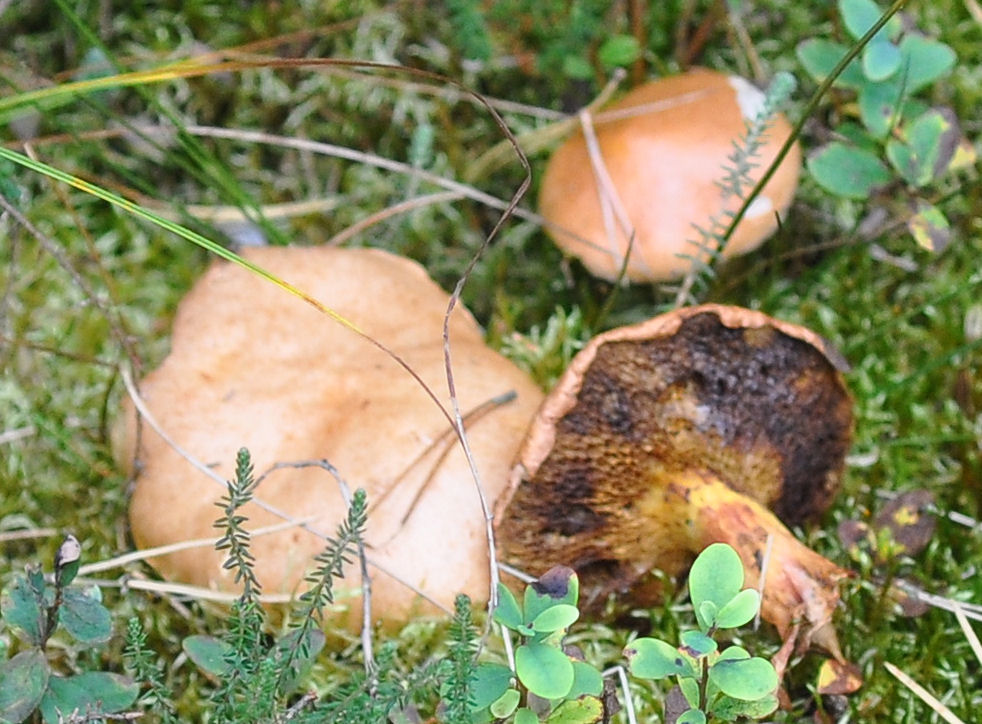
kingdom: Fungi
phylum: Basidiomycota
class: Agaricomycetes
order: Boletales
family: Suillaceae
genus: Suillus
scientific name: Suillus bovinus
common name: grovporet slimrørhat
